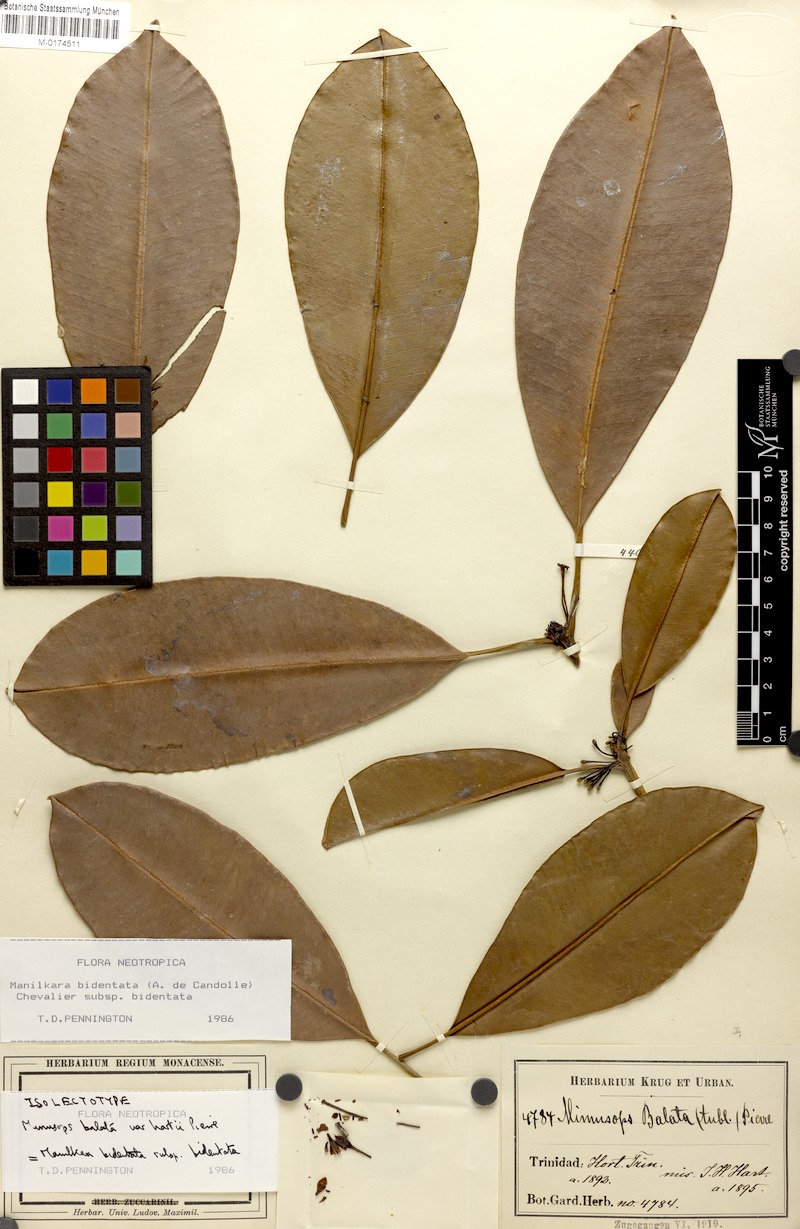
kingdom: Plantae
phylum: Tracheophyta
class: Magnoliopsida
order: Ericales
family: Sapotaceae
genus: Manilkara
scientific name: Manilkara bidentata
